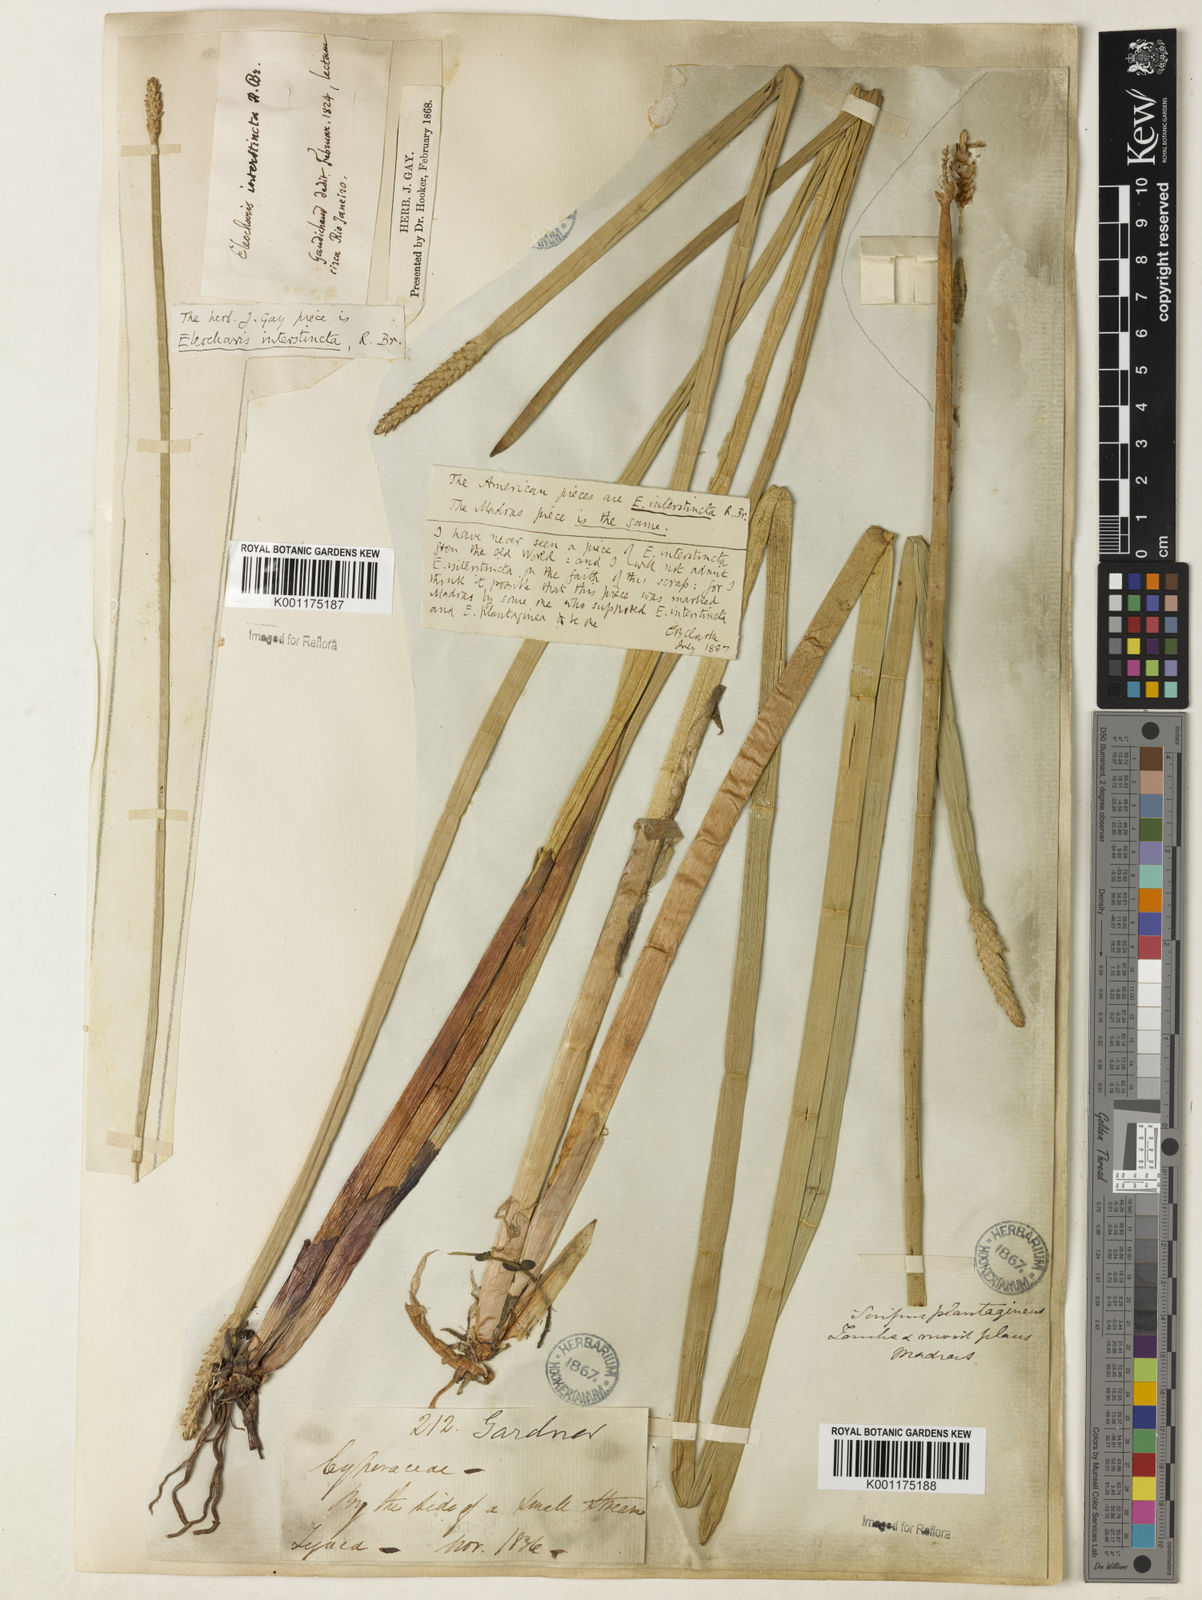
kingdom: Plantae
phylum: Tracheophyta
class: Liliopsida
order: Poales
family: Cyperaceae
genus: Eleocharis
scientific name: Eleocharis interstincta
